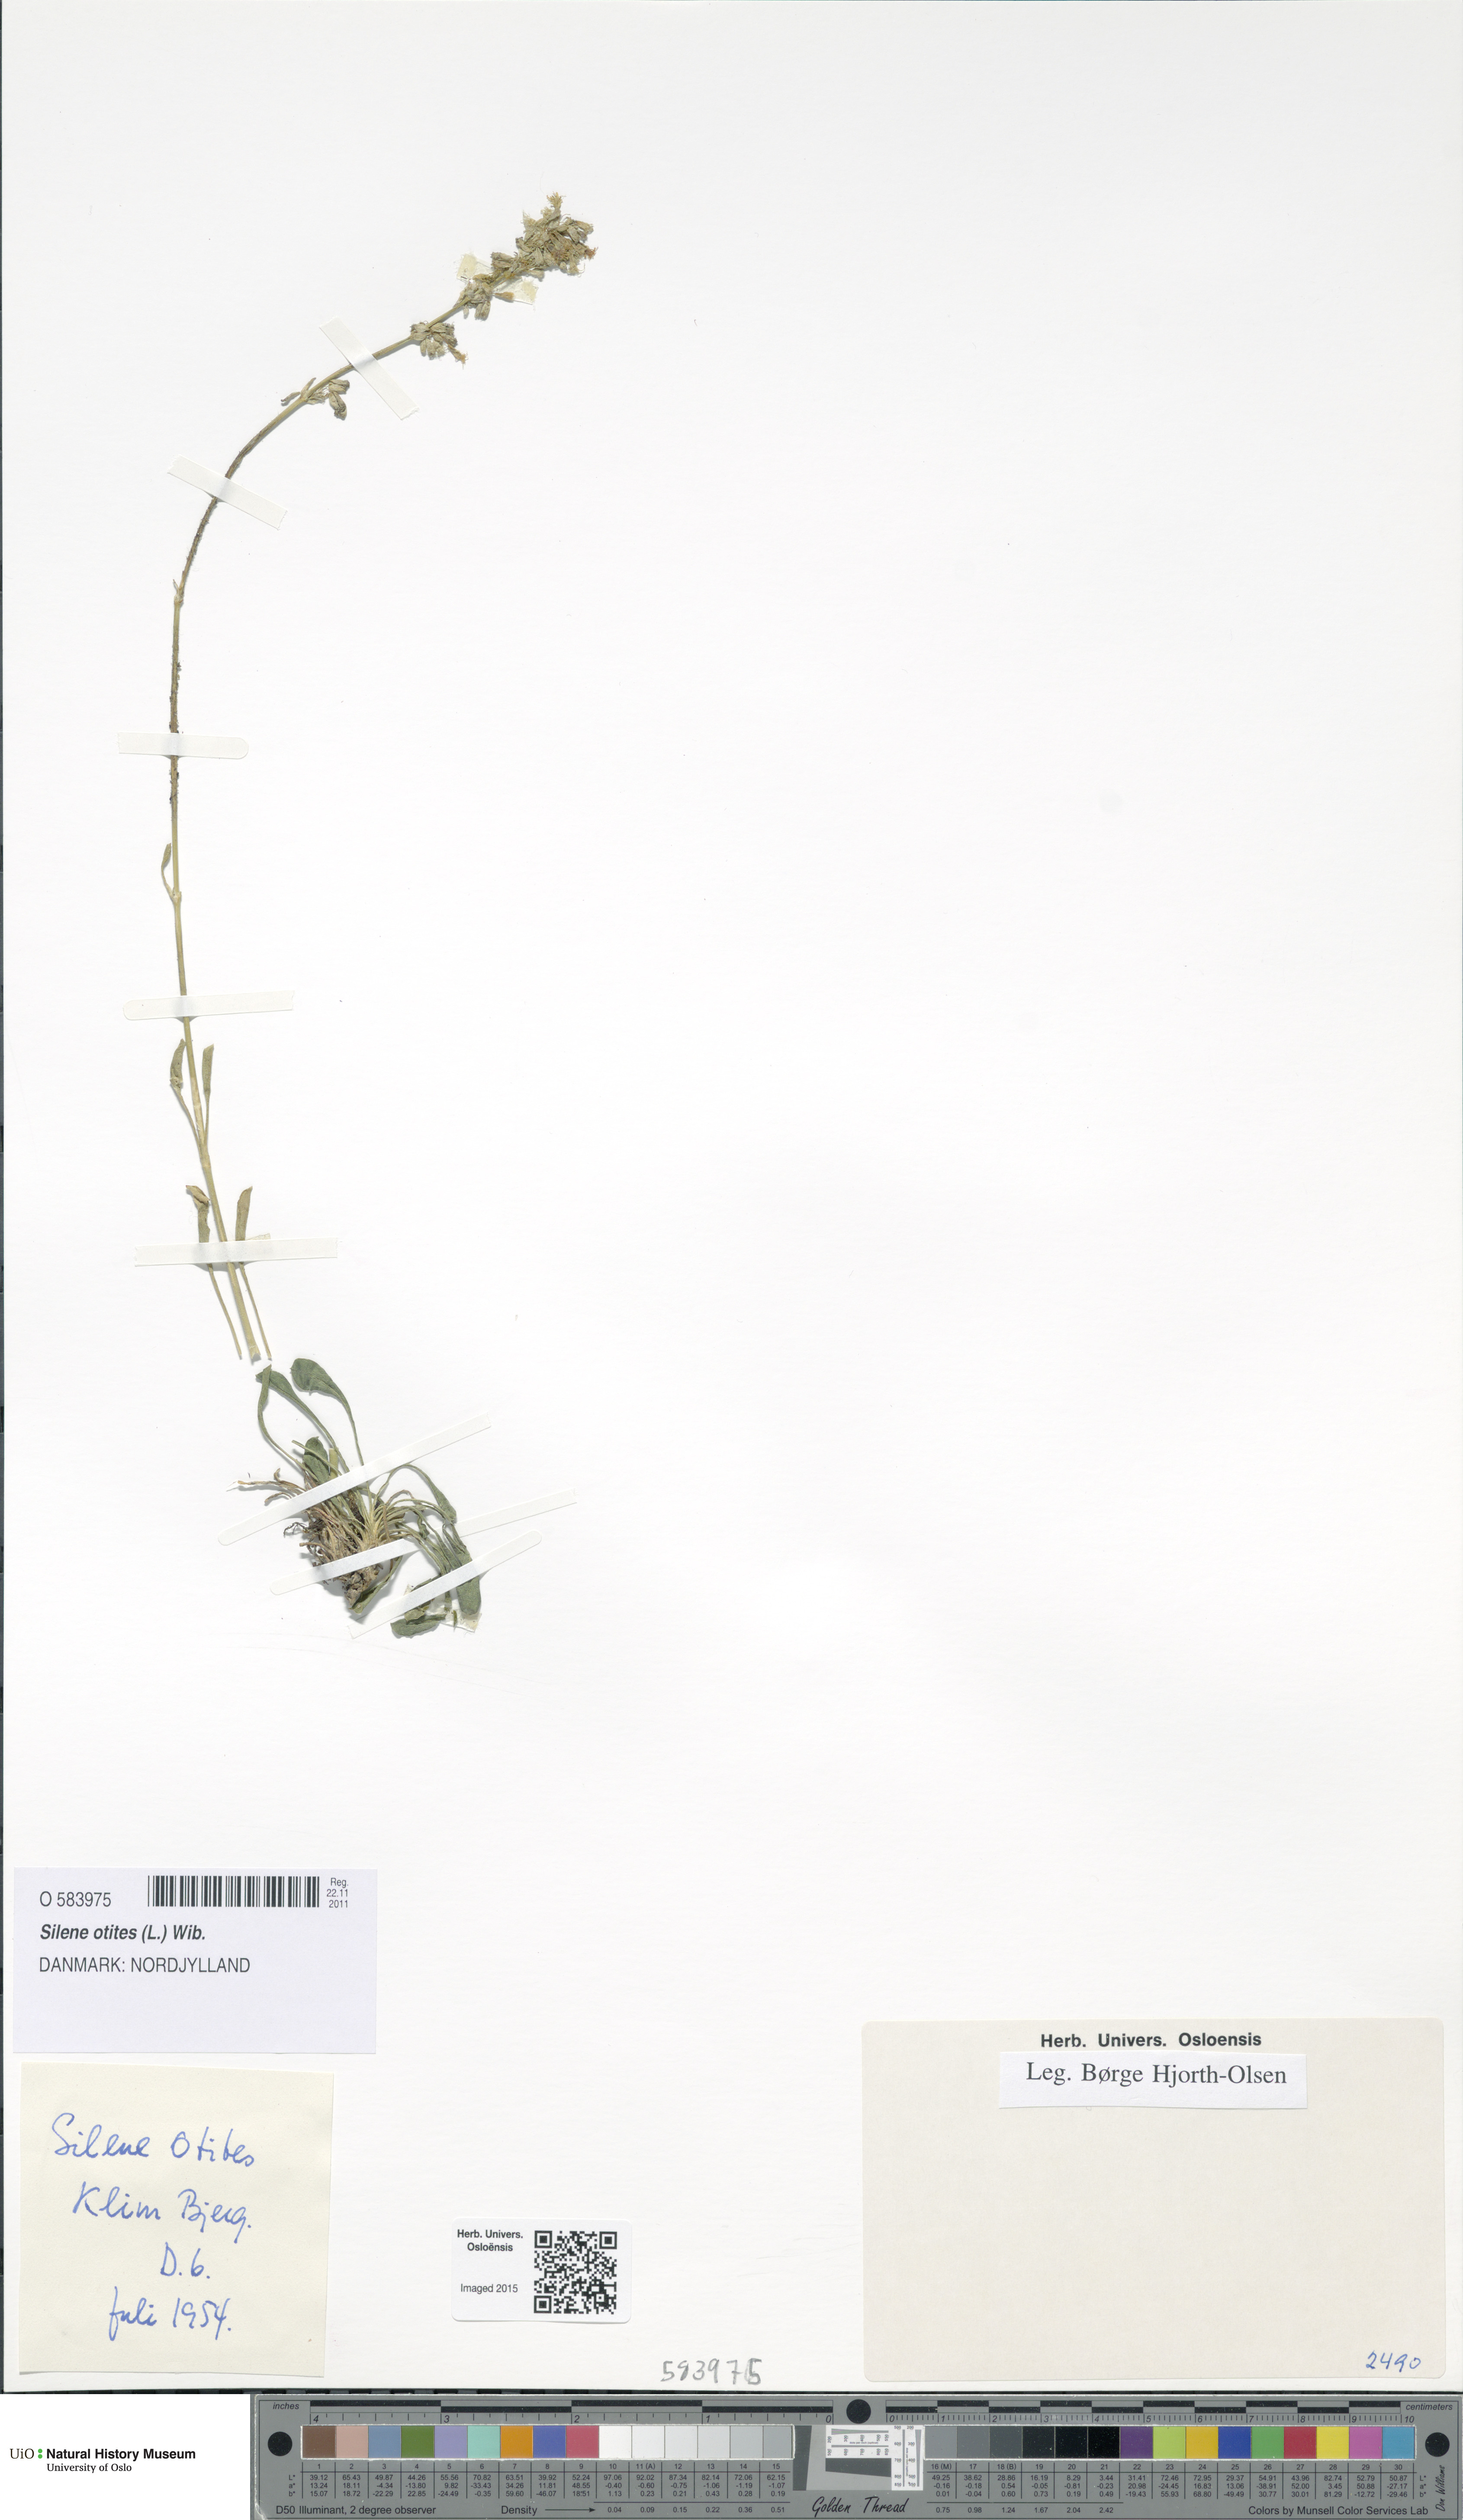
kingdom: Plantae
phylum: Tracheophyta
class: Magnoliopsida
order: Caryophyllales
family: Caryophyllaceae
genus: Silene
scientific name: Silene otites
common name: Spanish catchfly
